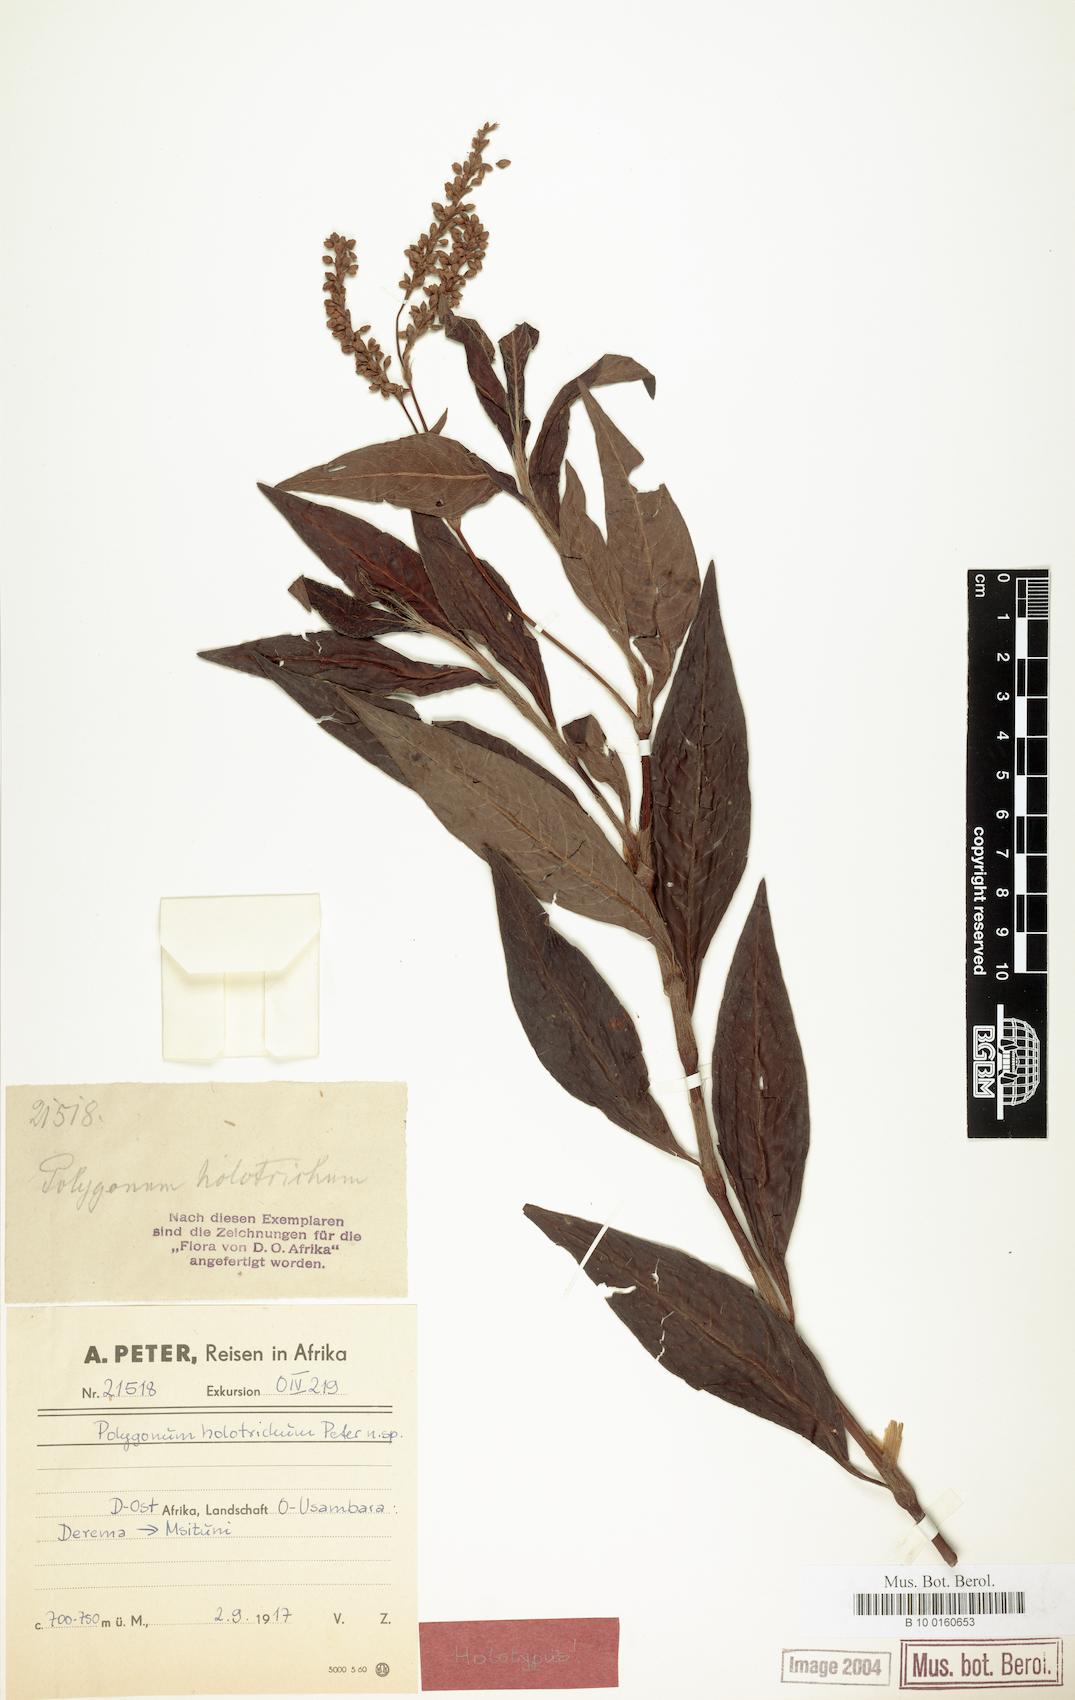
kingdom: Plantae
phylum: Tracheophyta
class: Magnoliopsida
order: Caryophyllales
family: Polygonaceae
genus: Persicaria
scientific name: Persicaria setosula
